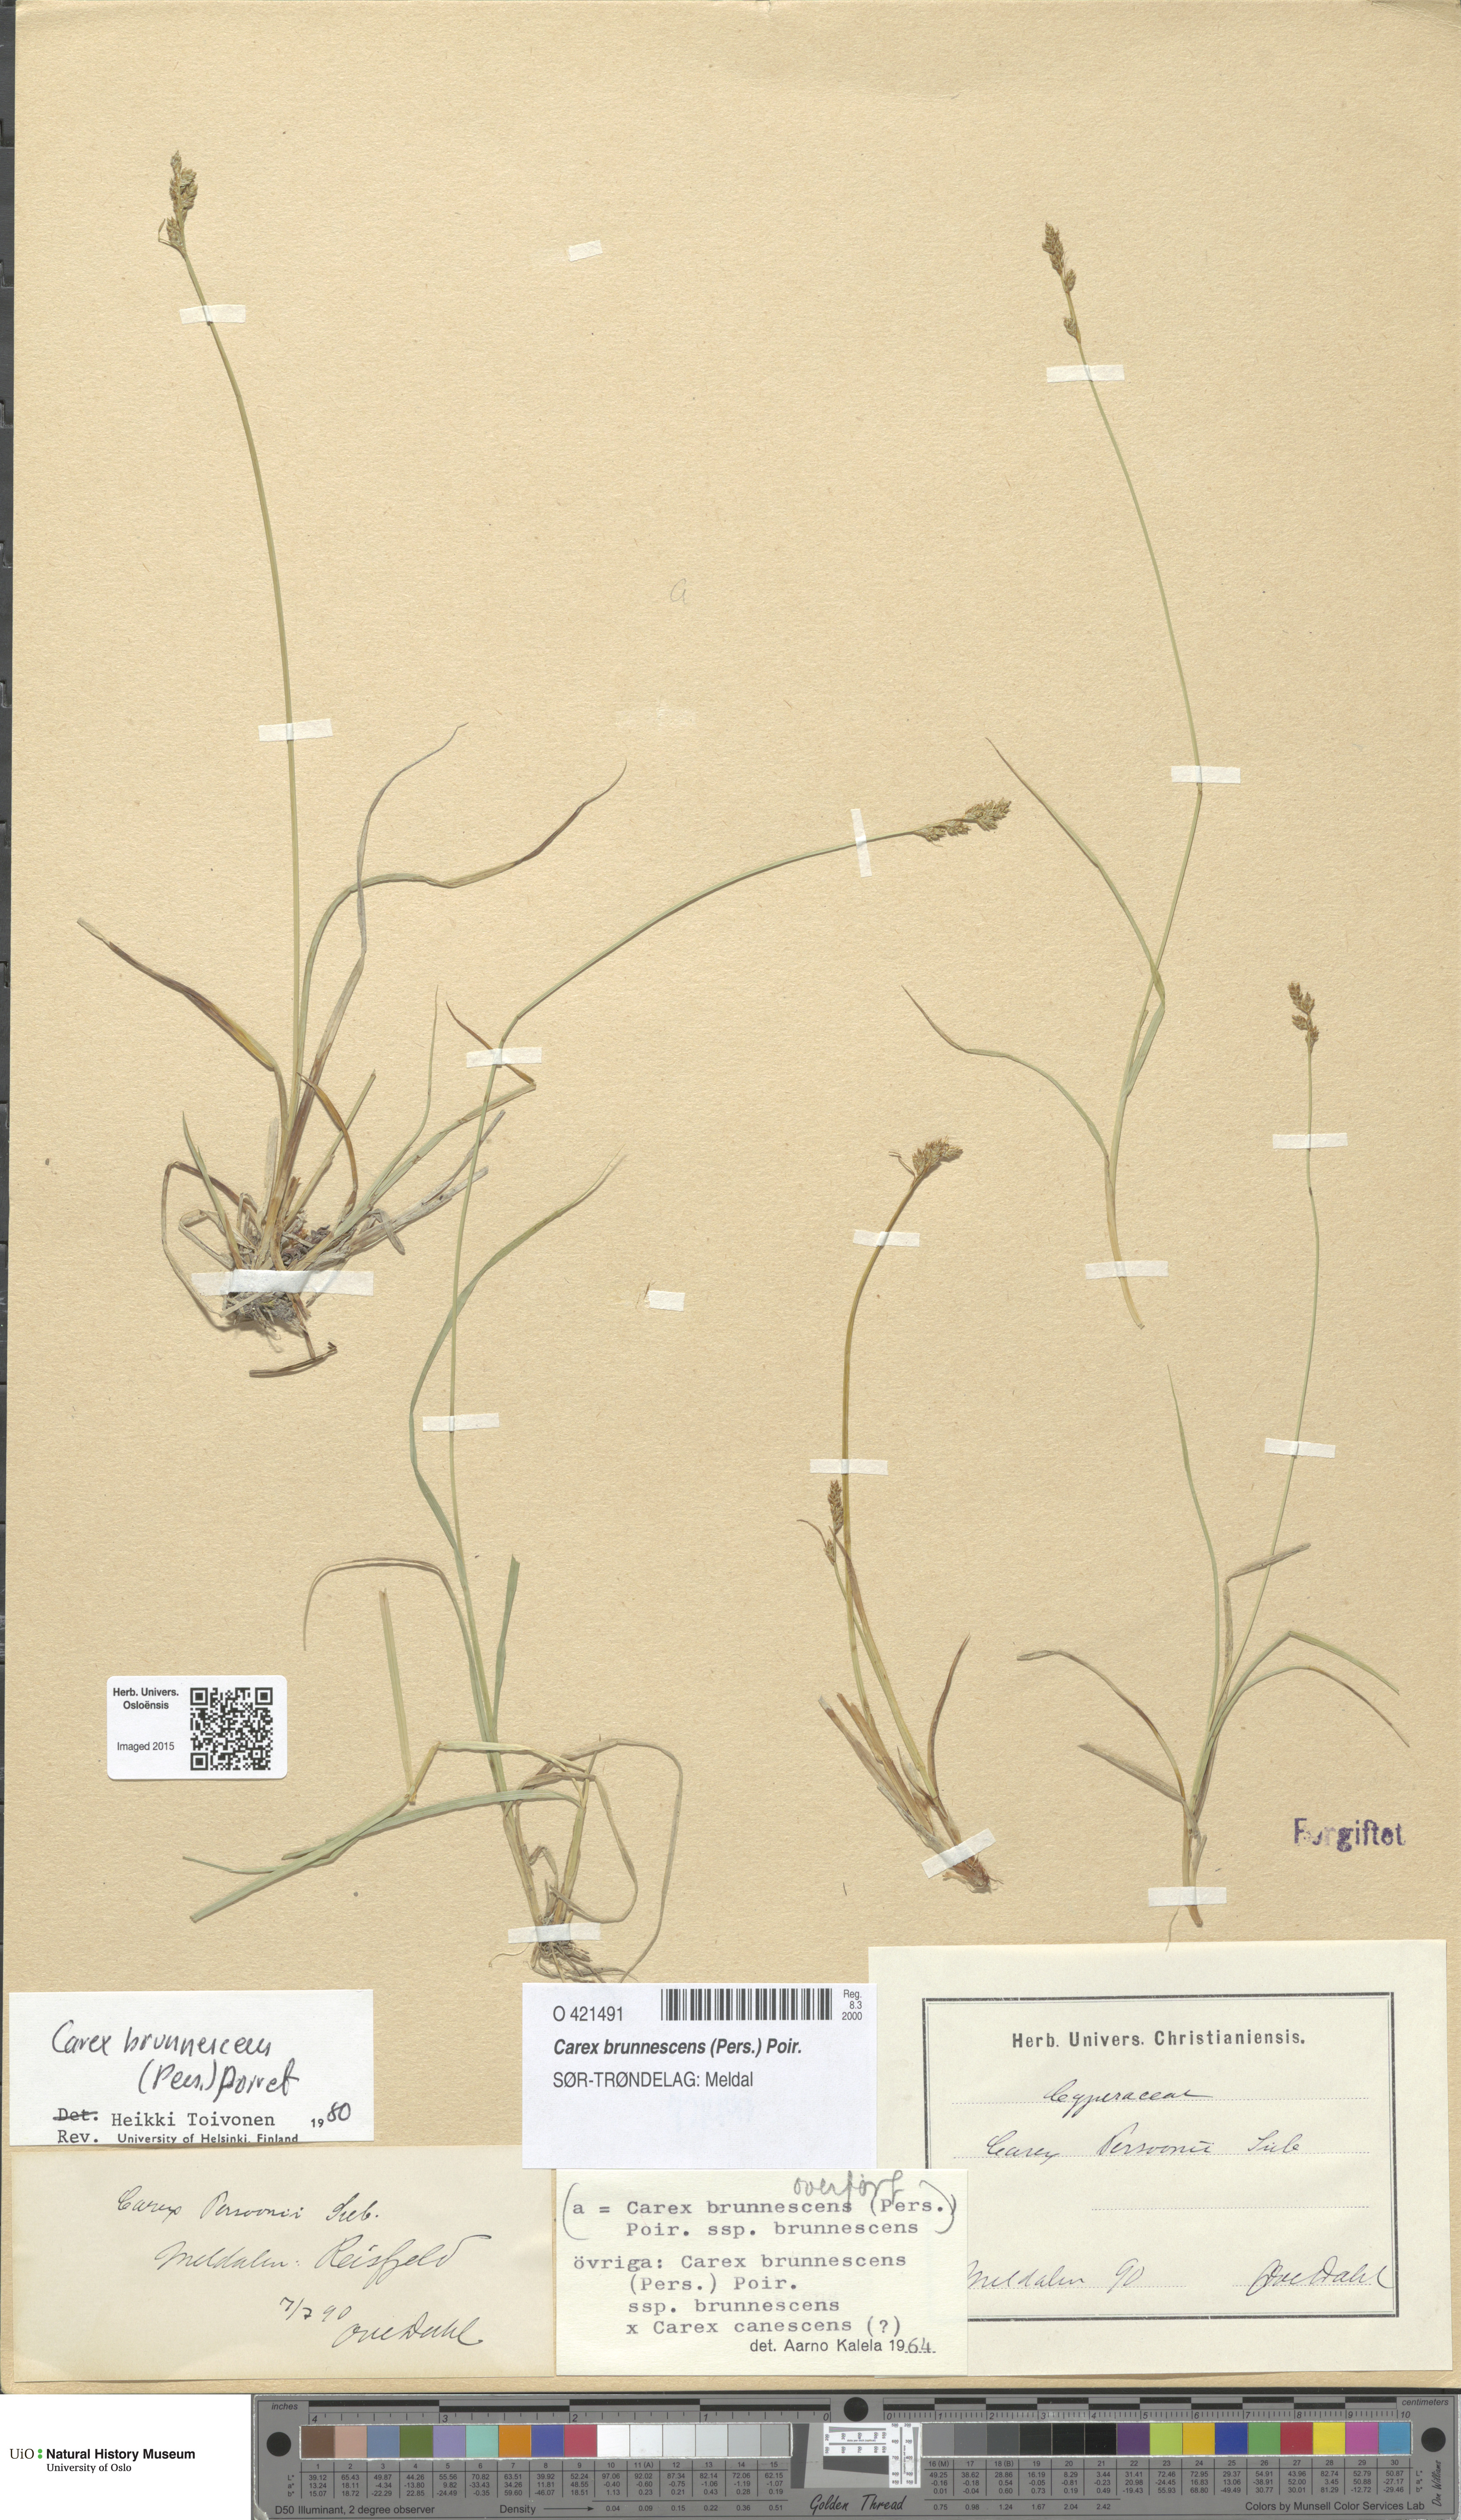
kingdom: Plantae
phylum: Tracheophyta
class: Liliopsida
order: Poales
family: Cyperaceae
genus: Carex
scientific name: Carex brunnescens
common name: Brown sedge
